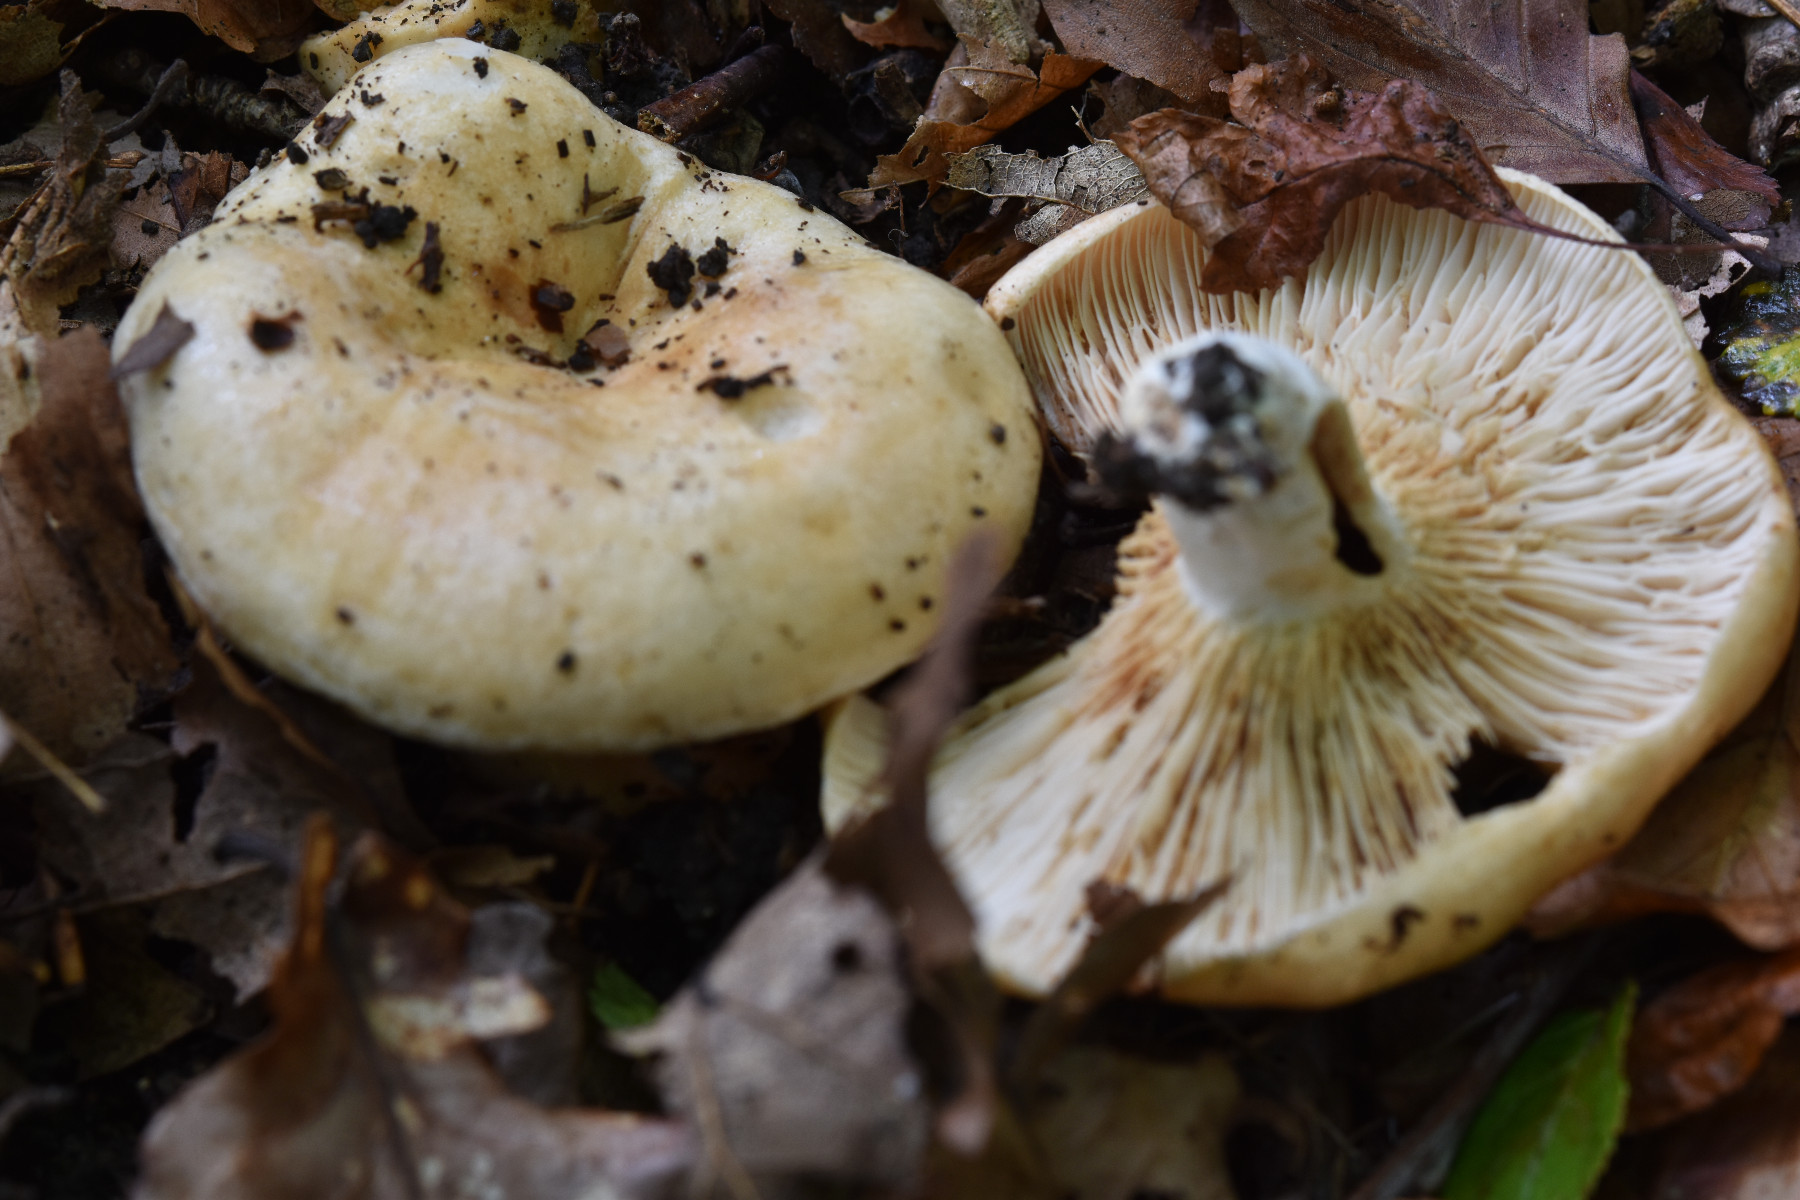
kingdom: Fungi
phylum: Basidiomycota
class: Agaricomycetes
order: Russulales
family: Russulaceae
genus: Lactarius
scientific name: Lactarius acerrimus
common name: brændende mælkehat
